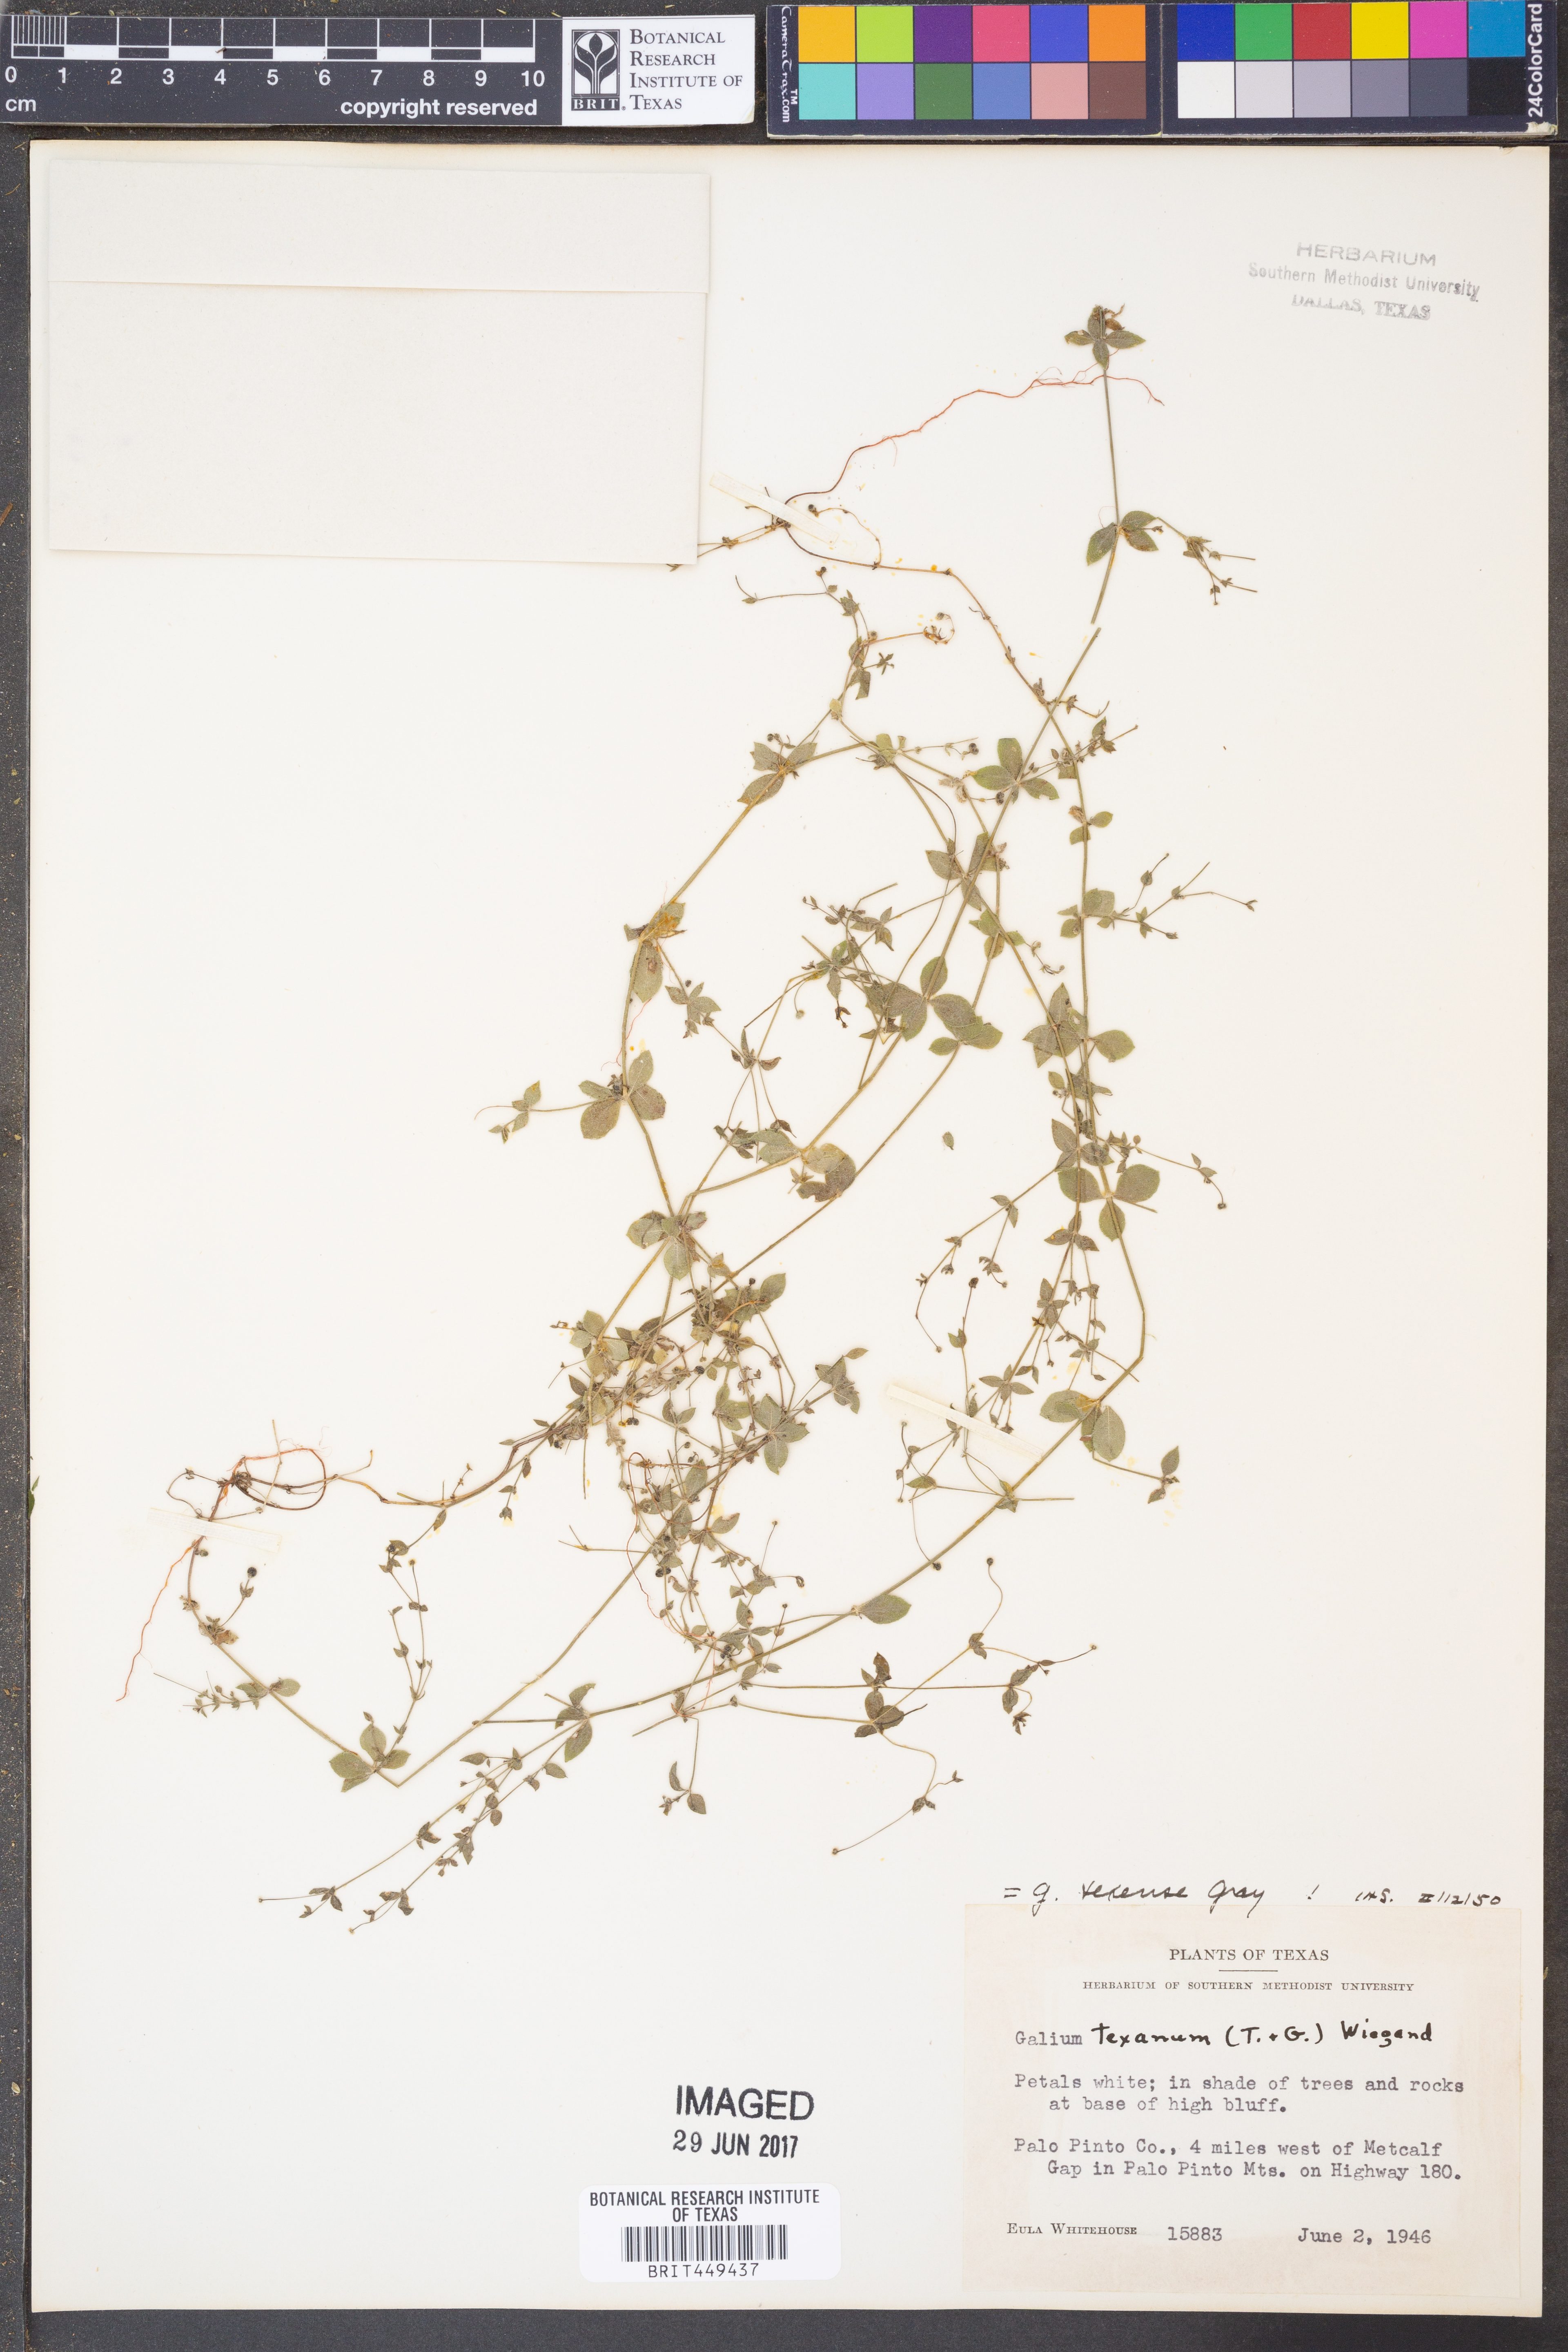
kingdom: Plantae
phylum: Tracheophyta
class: Magnoliopsida
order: Gentianales
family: Rubiaceae
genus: Galium
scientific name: Galium texense
